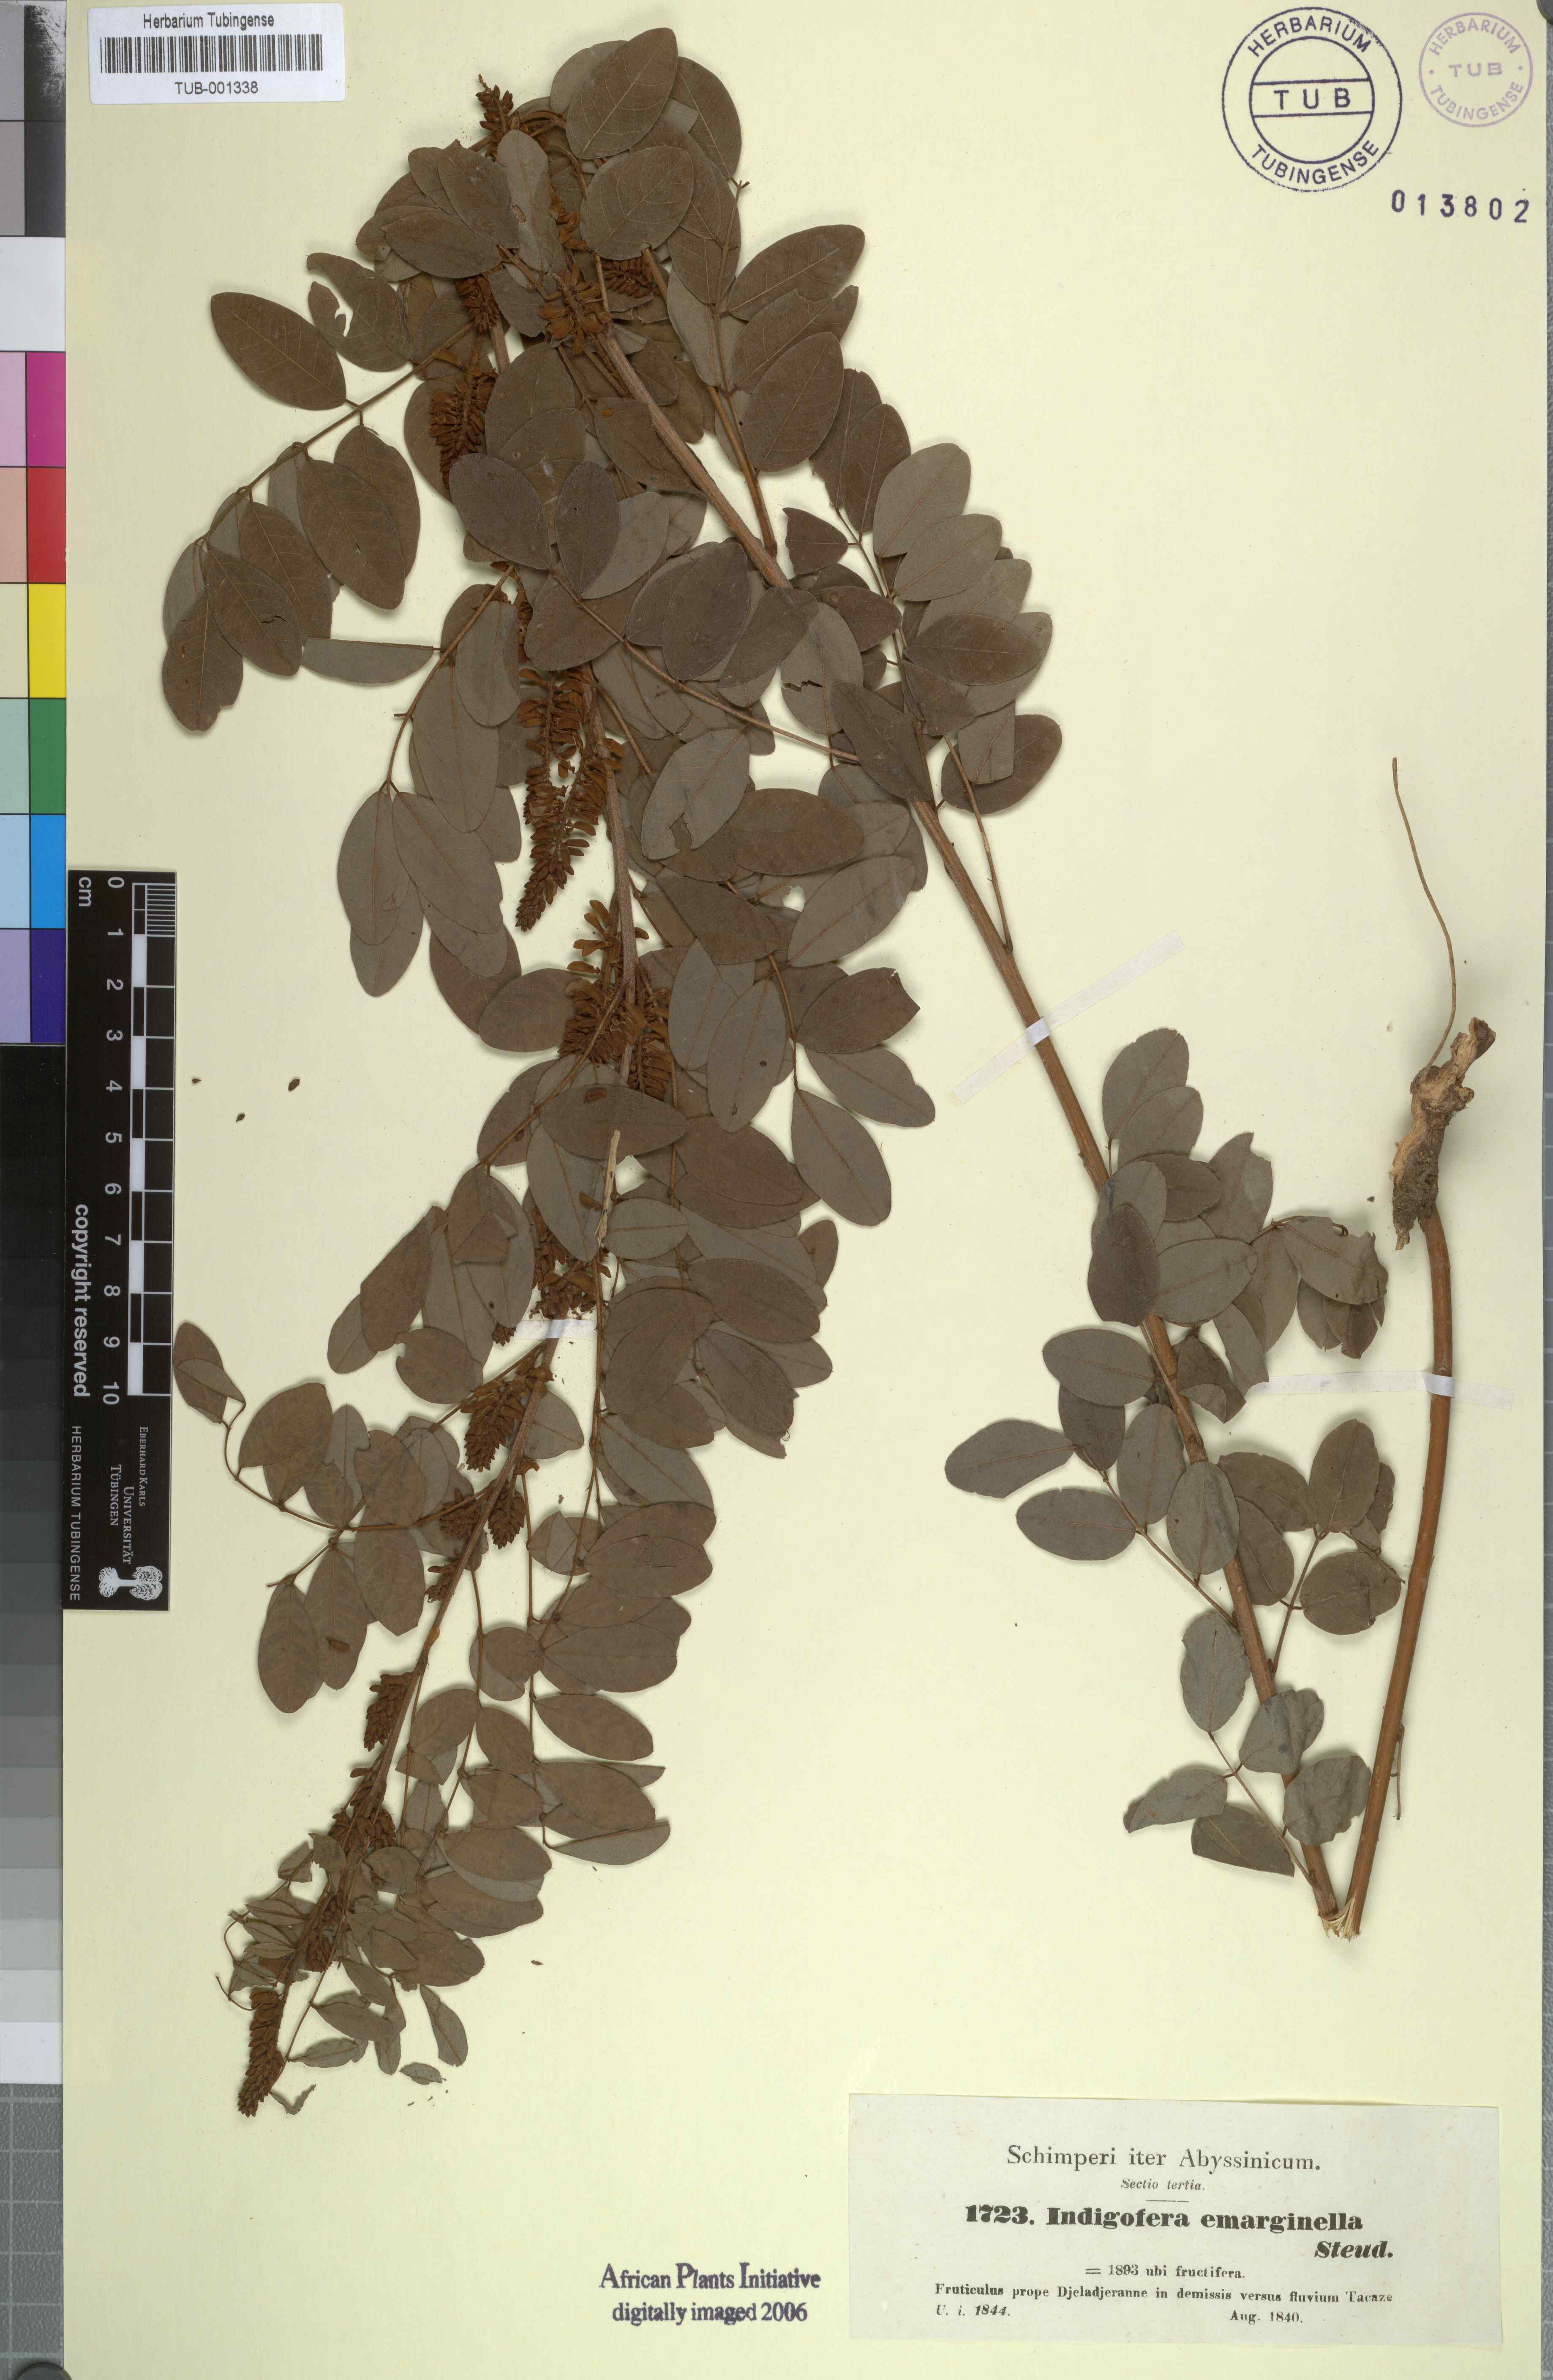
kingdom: Plantae
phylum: Tracheophyta
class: Magnoliopsida
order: Fabales
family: Fabaceae
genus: Indigofera
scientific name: Indigofera emarginella
